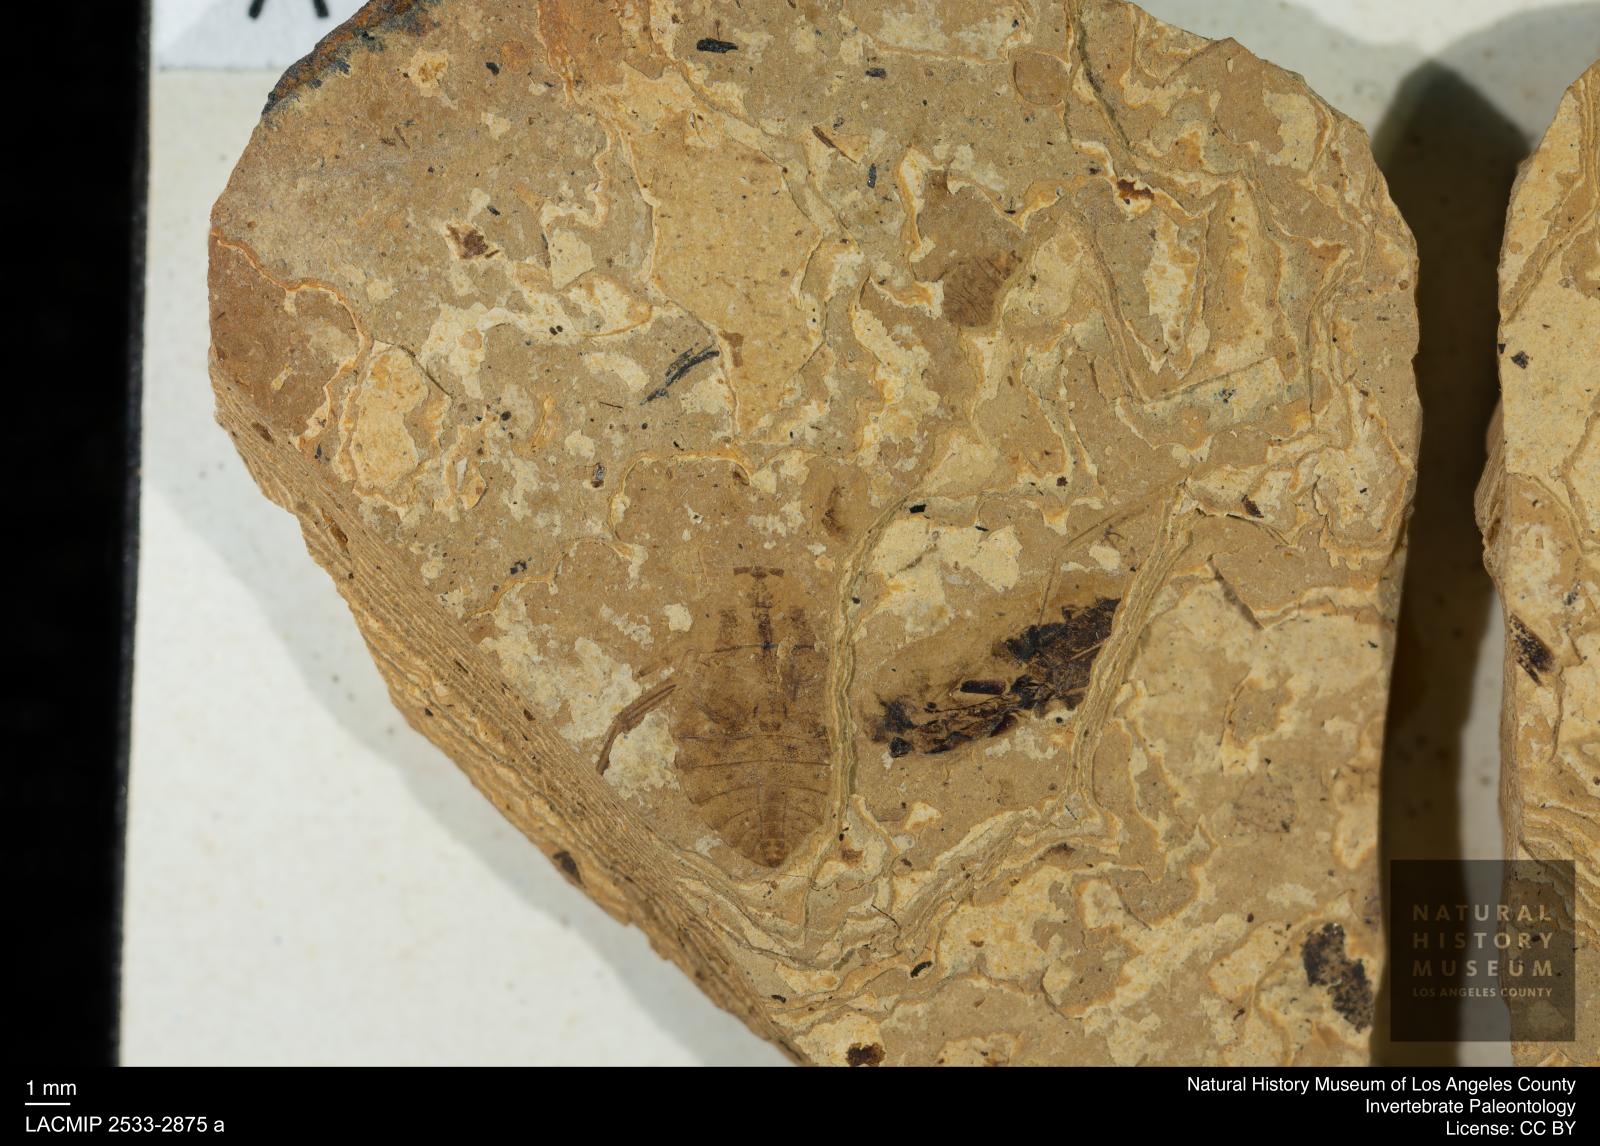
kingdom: Animalia
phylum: Arthropoda
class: Insecta
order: Hemiptera
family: Naucoridae
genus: Naucoris
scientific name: Naucoris rottensis
